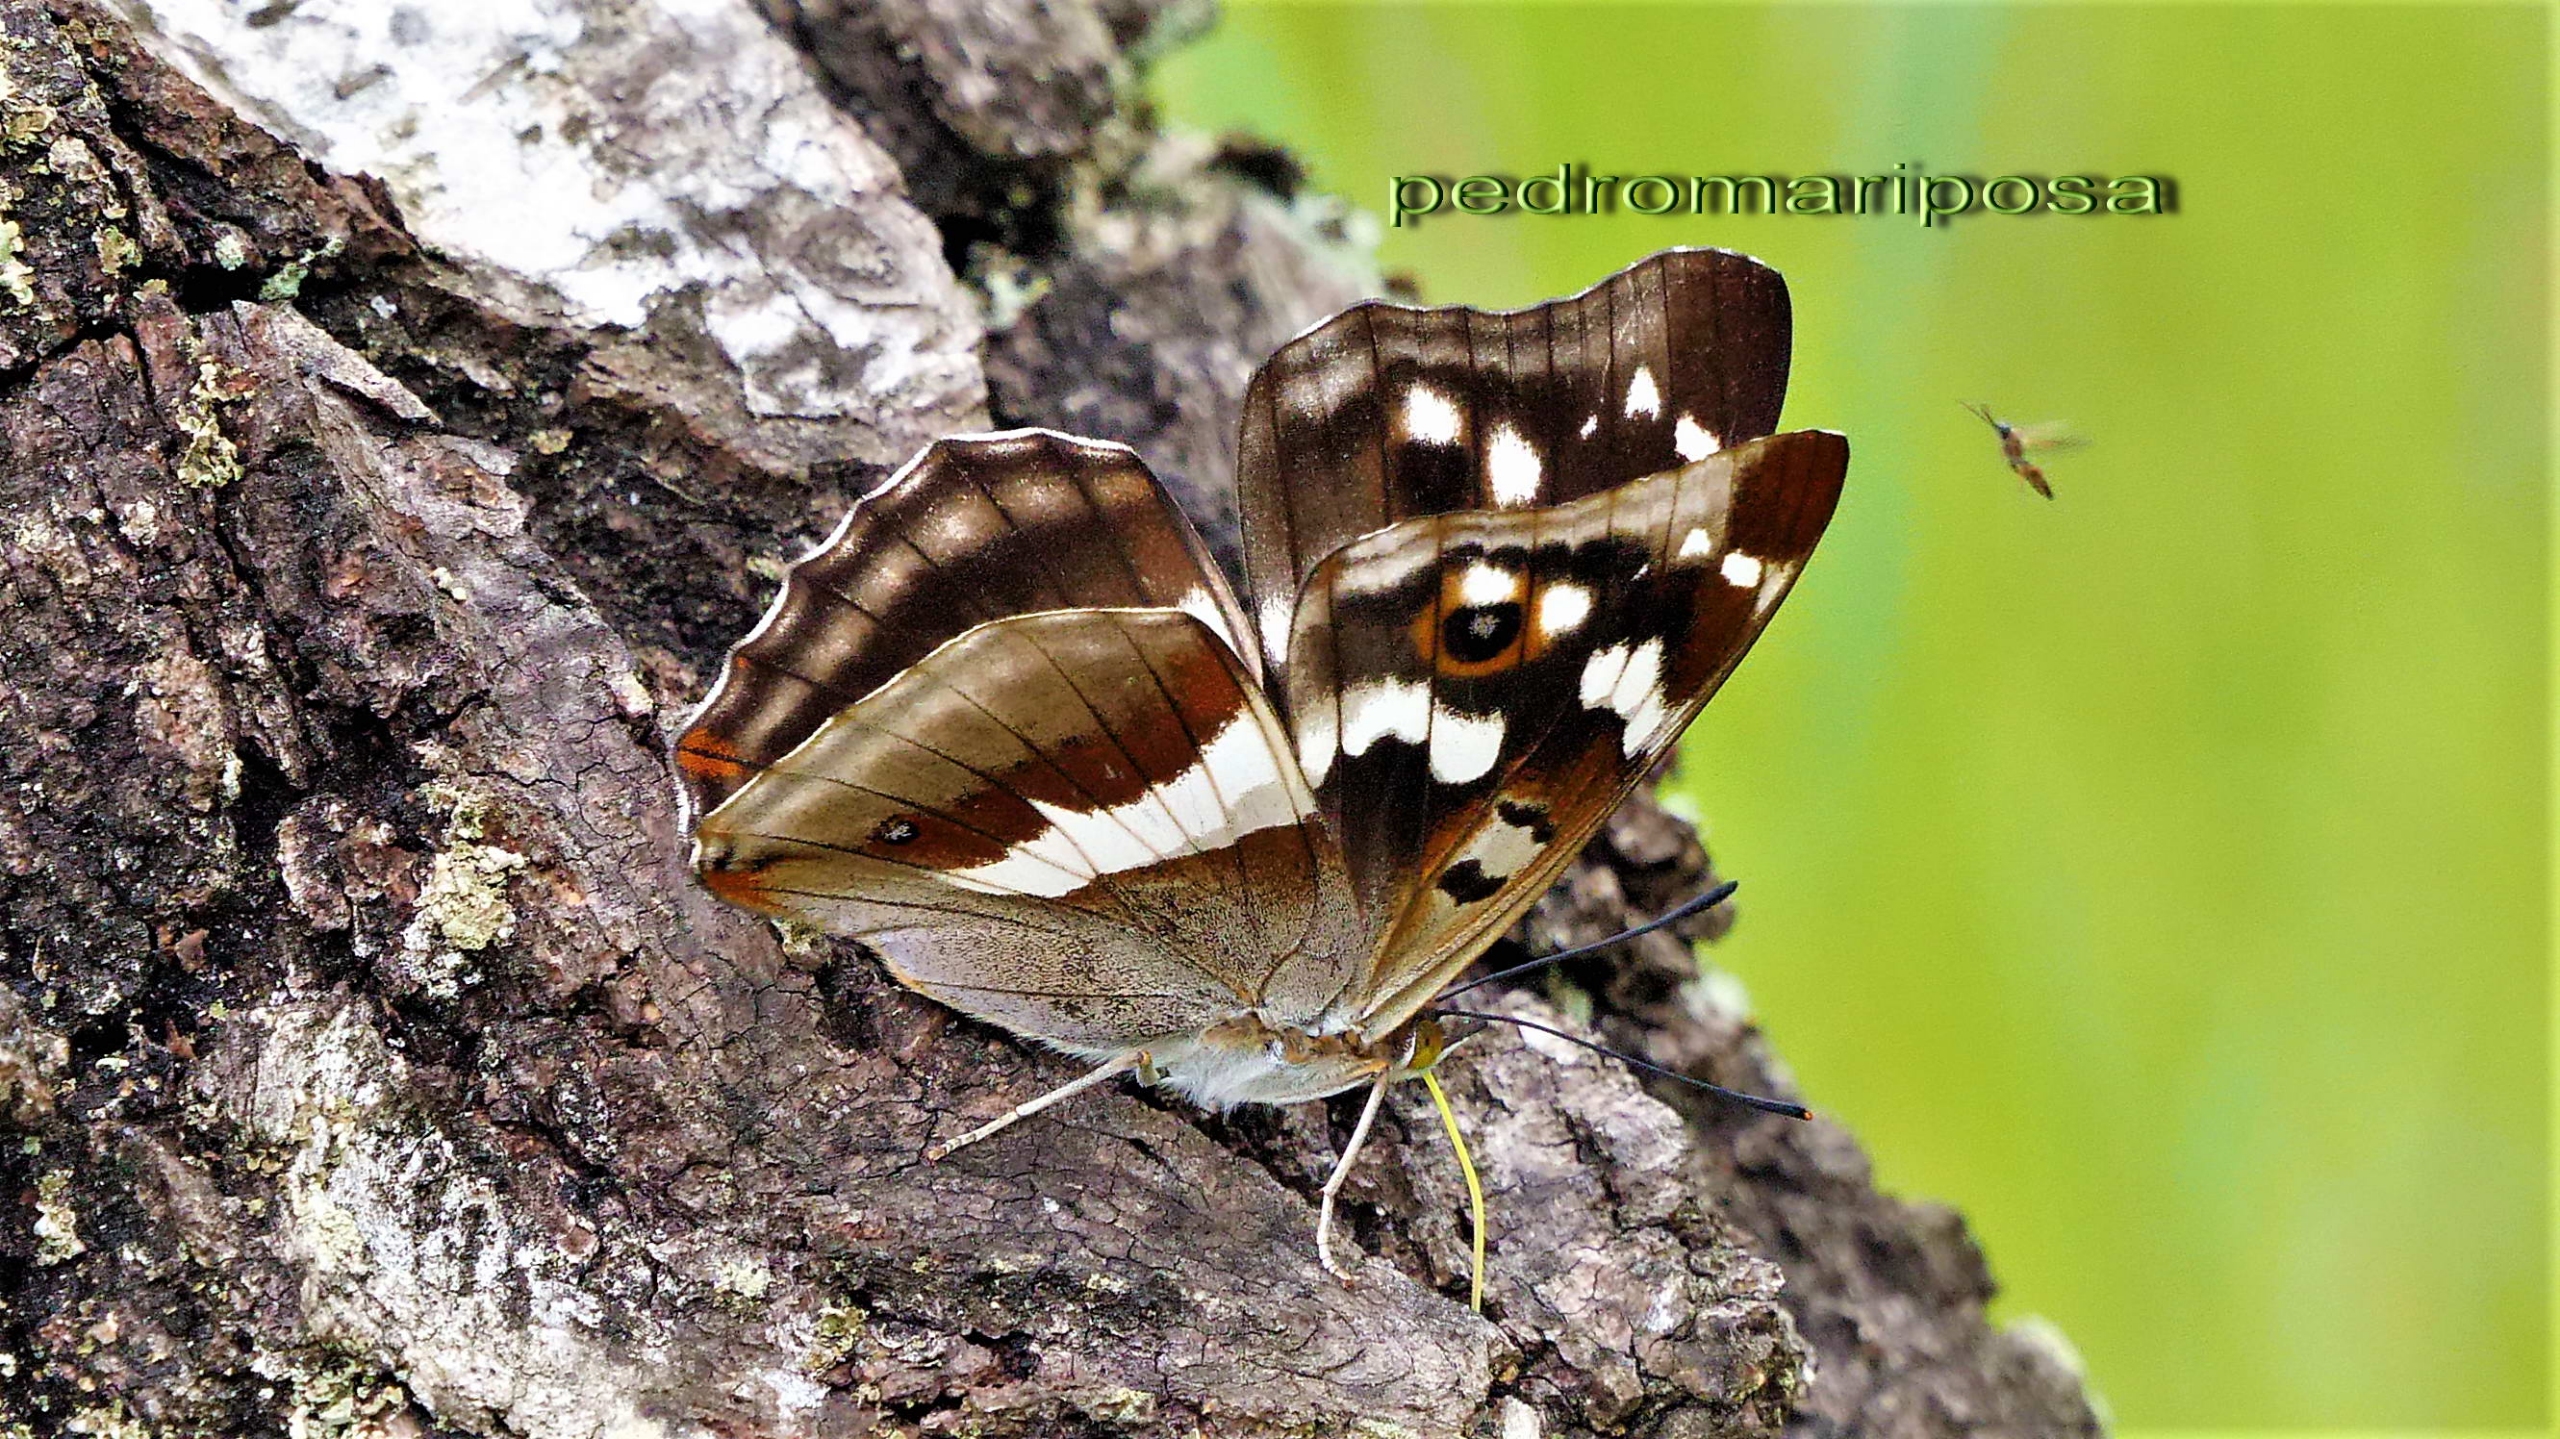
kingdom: Animalia
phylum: Arthropoda
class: Insecta
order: Lepidoptera
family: Nymphalidae
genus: Apatura
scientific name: Apatura iris
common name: Iris
